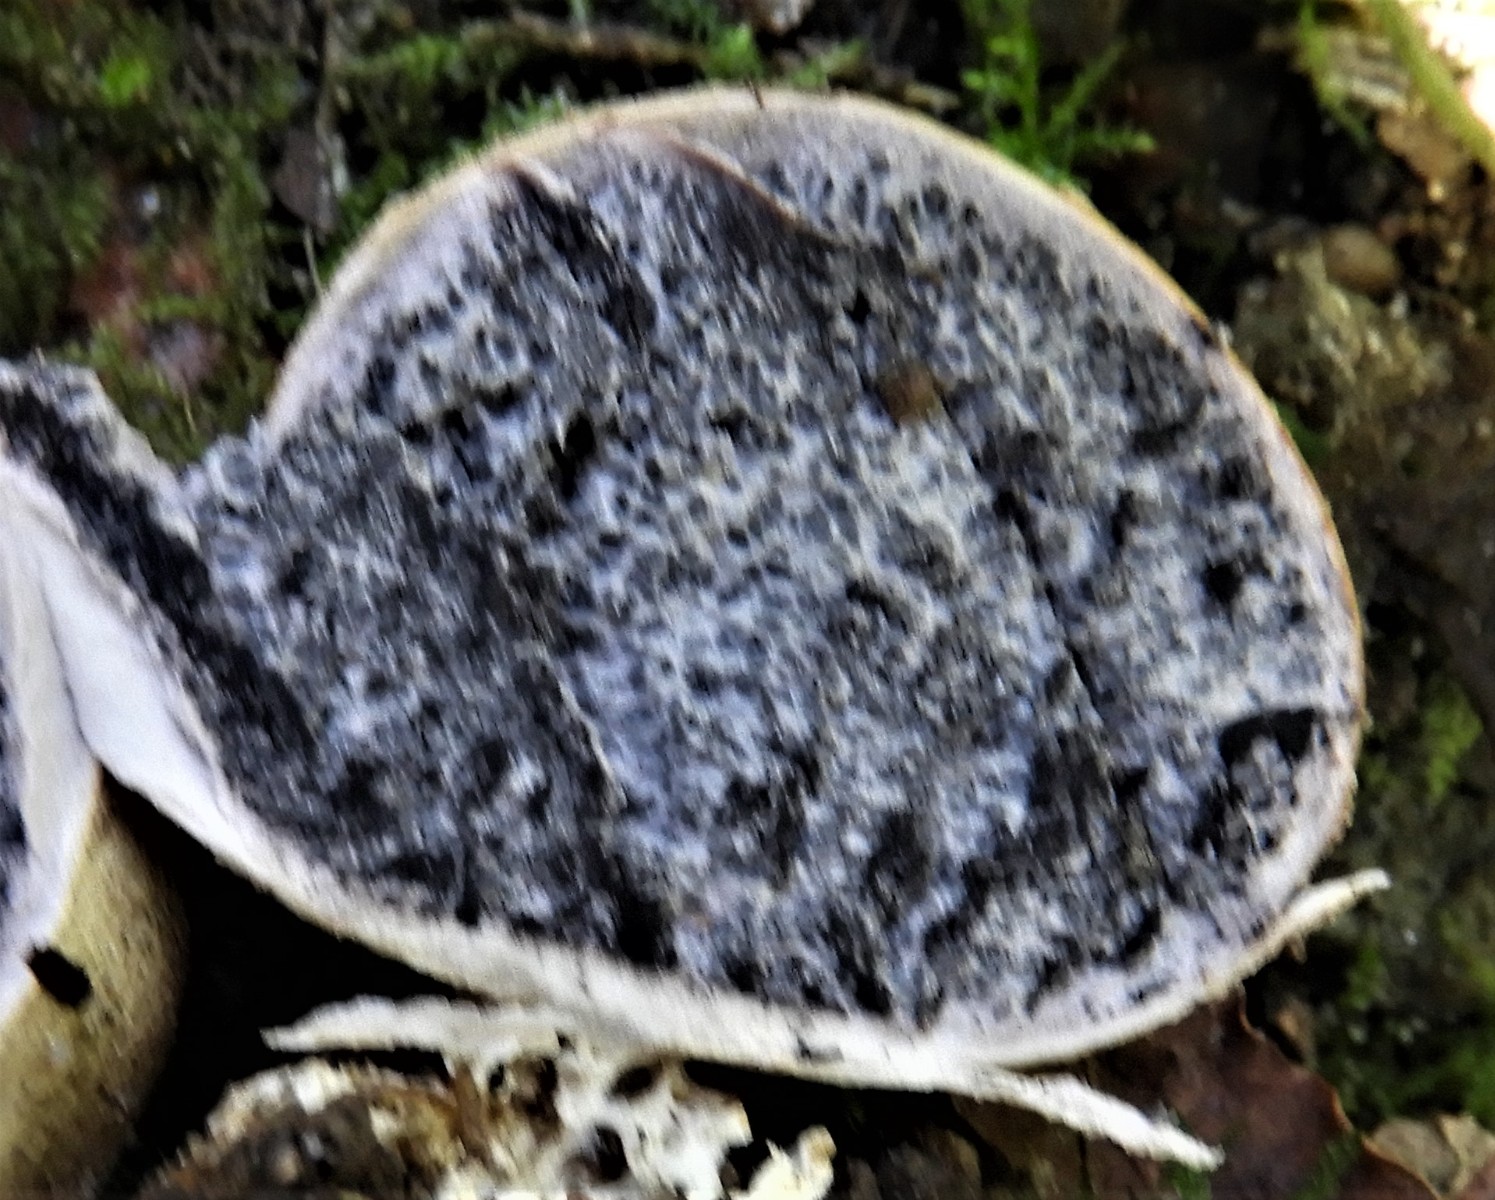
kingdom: Fungi
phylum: Basidiomycota
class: Agaricomycetes
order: Boletales
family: Sclerodermataceae
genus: Scleroderma
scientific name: Scleroderma bovista
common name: bovist-bruskbold
